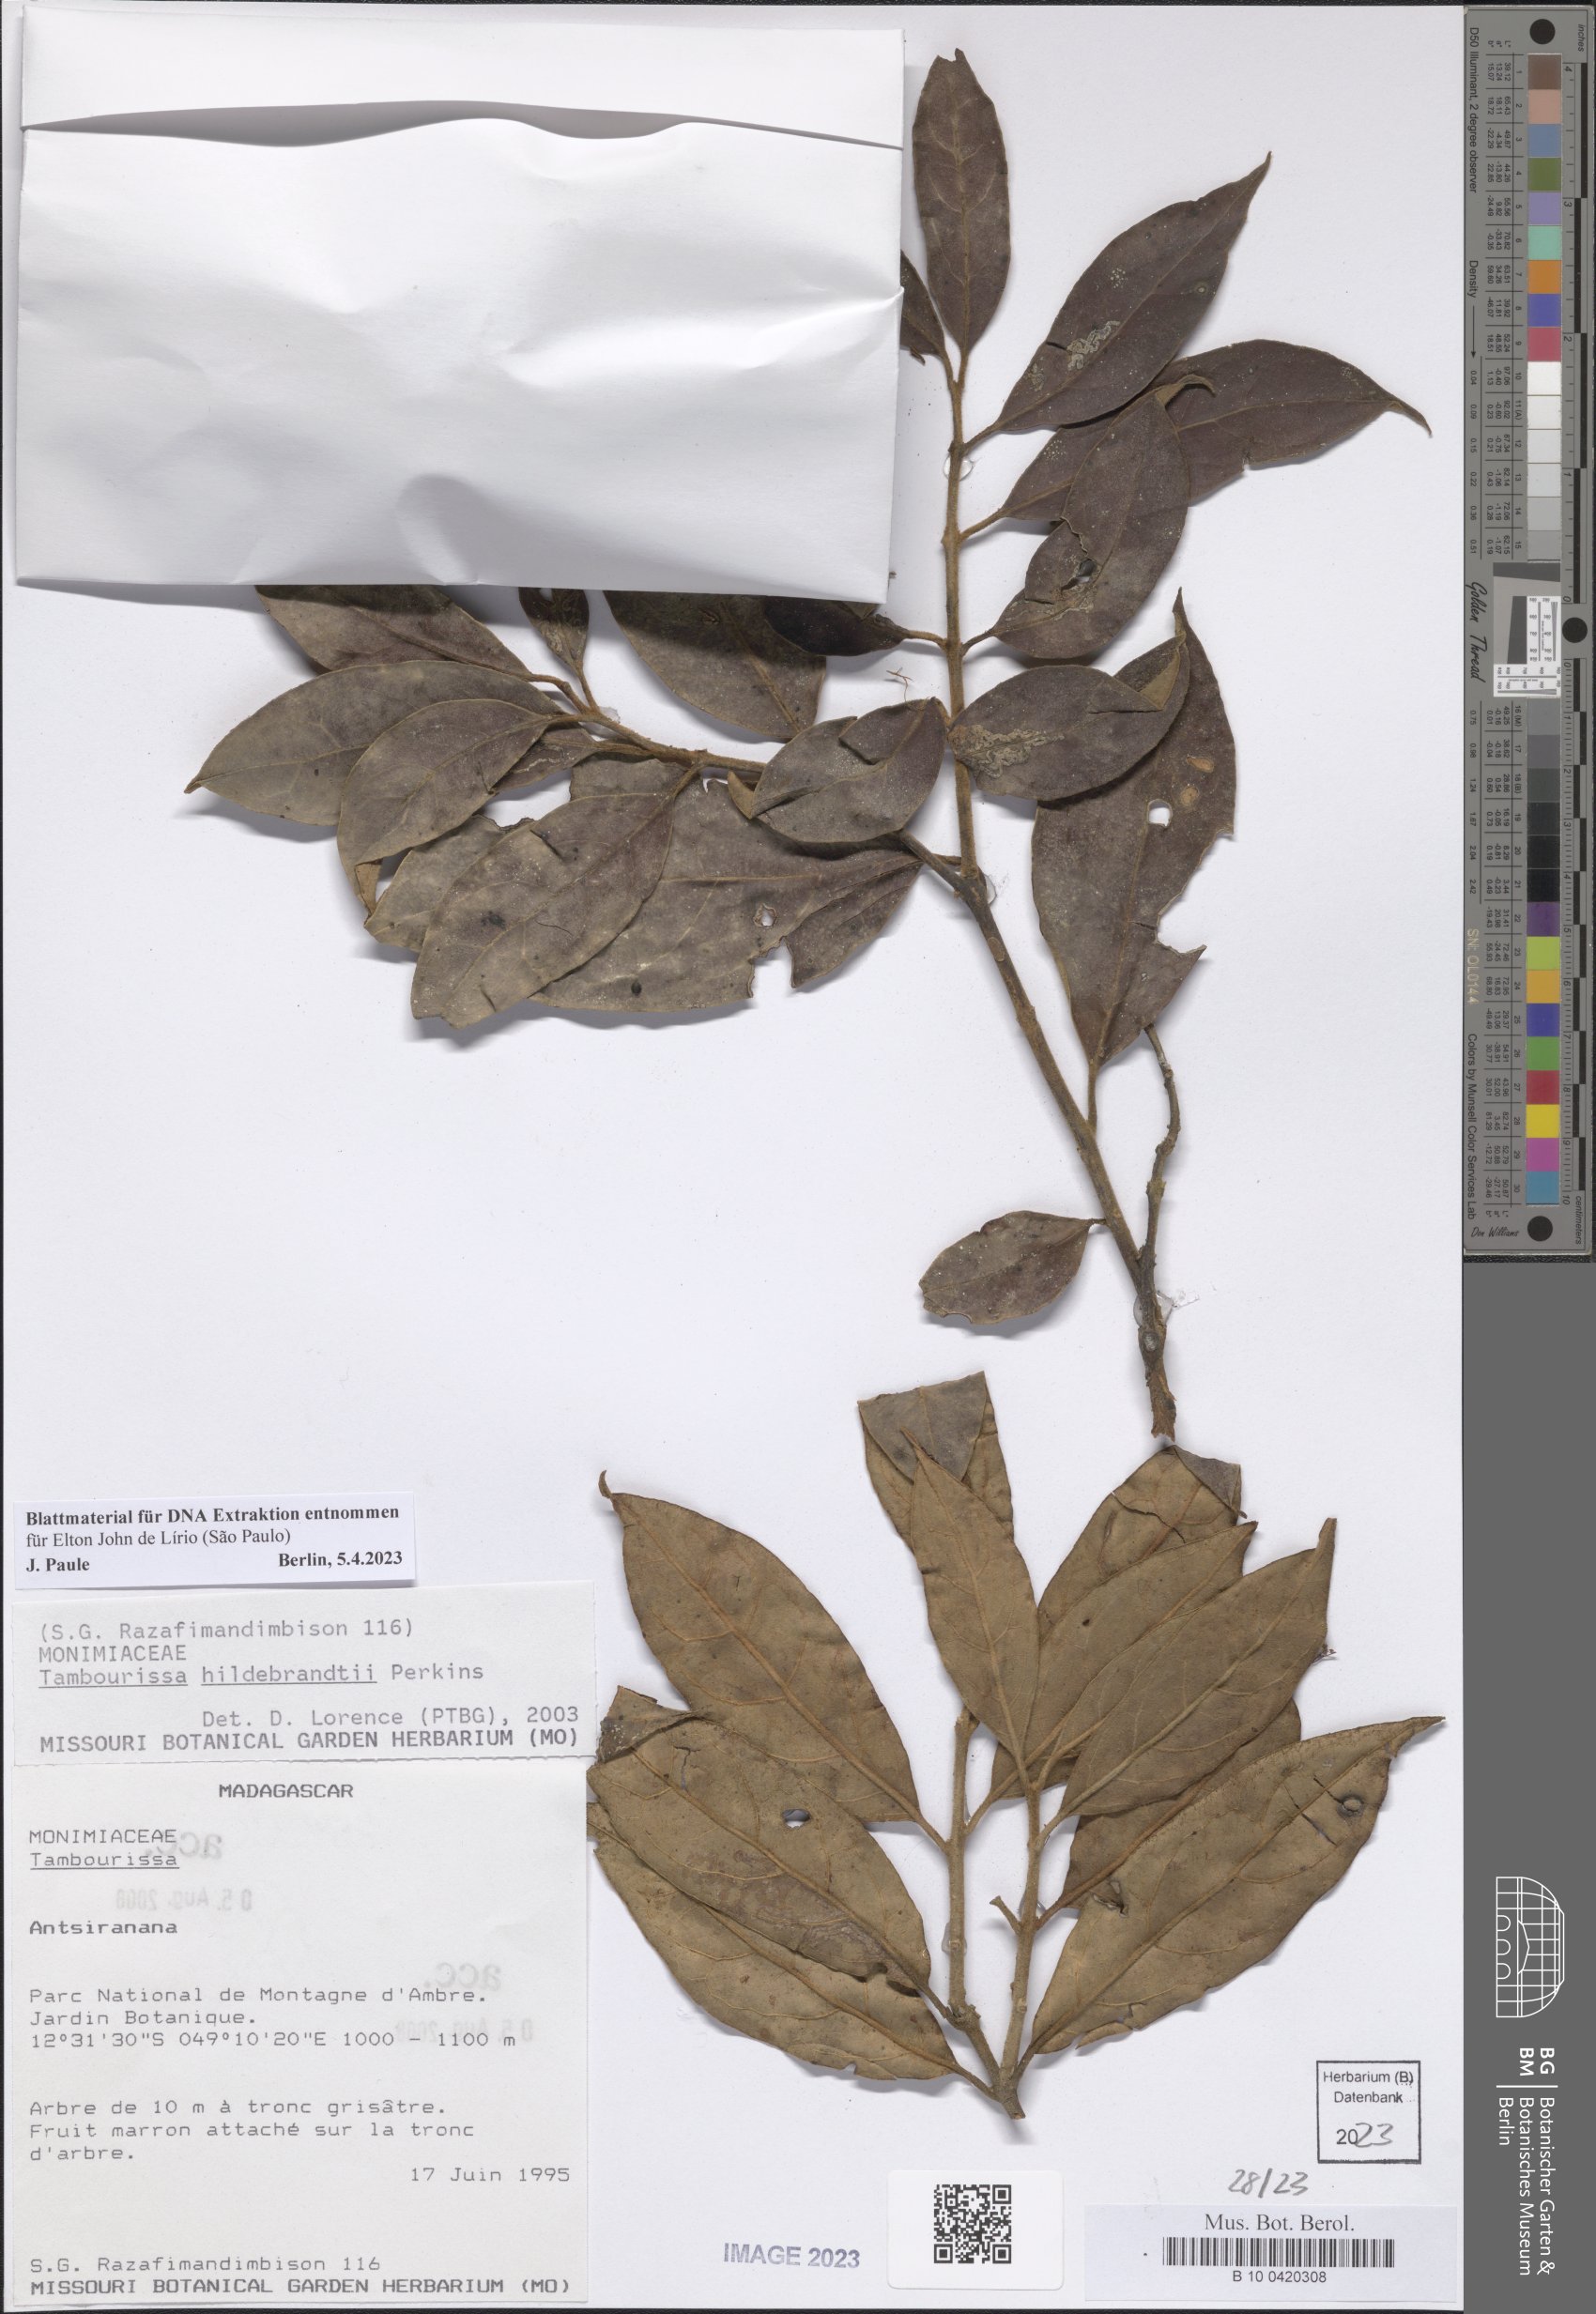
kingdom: Plantae
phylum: Tracheophyta
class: Magnoliopsida
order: Laurales
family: Monimiaceae
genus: Tambourissa
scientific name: Tambourissa hildebrandtii
